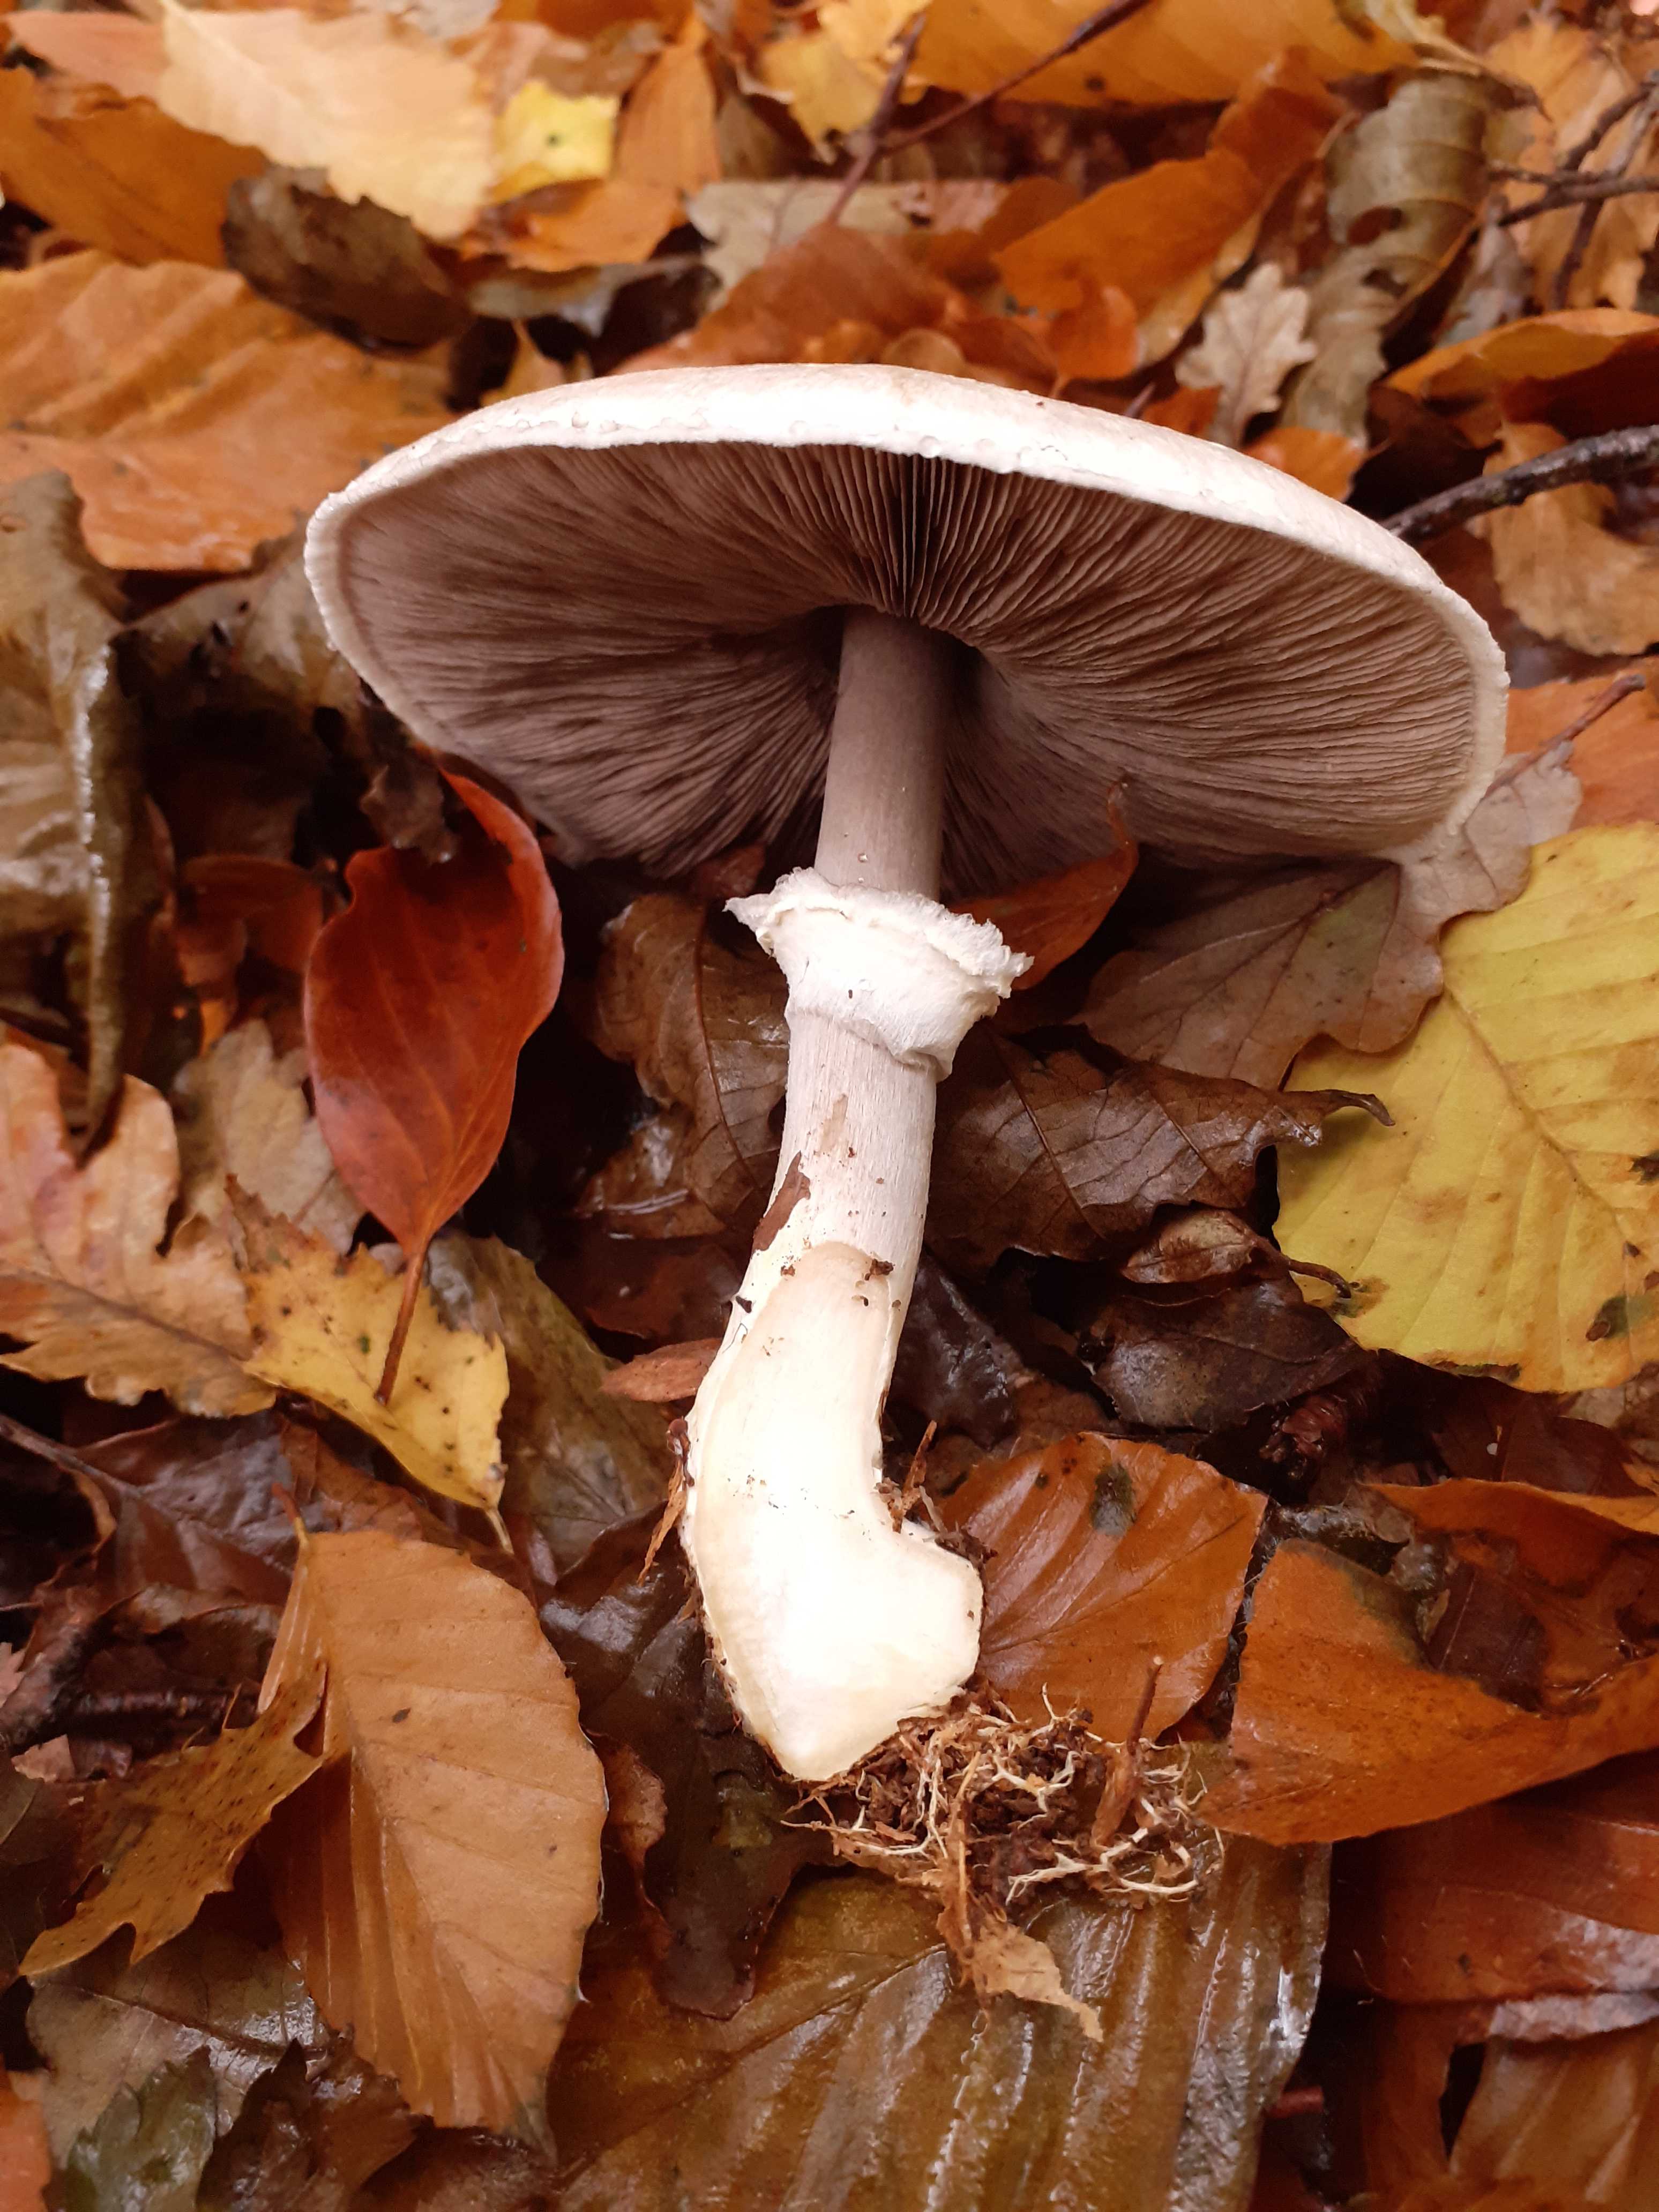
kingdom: Fungi
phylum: Basidiomycota
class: Agaricomycetes
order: Agaricales
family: Agaricaceae
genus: Agaricus
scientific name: Agaricus sylvicola
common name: skiveknoldet champignon
